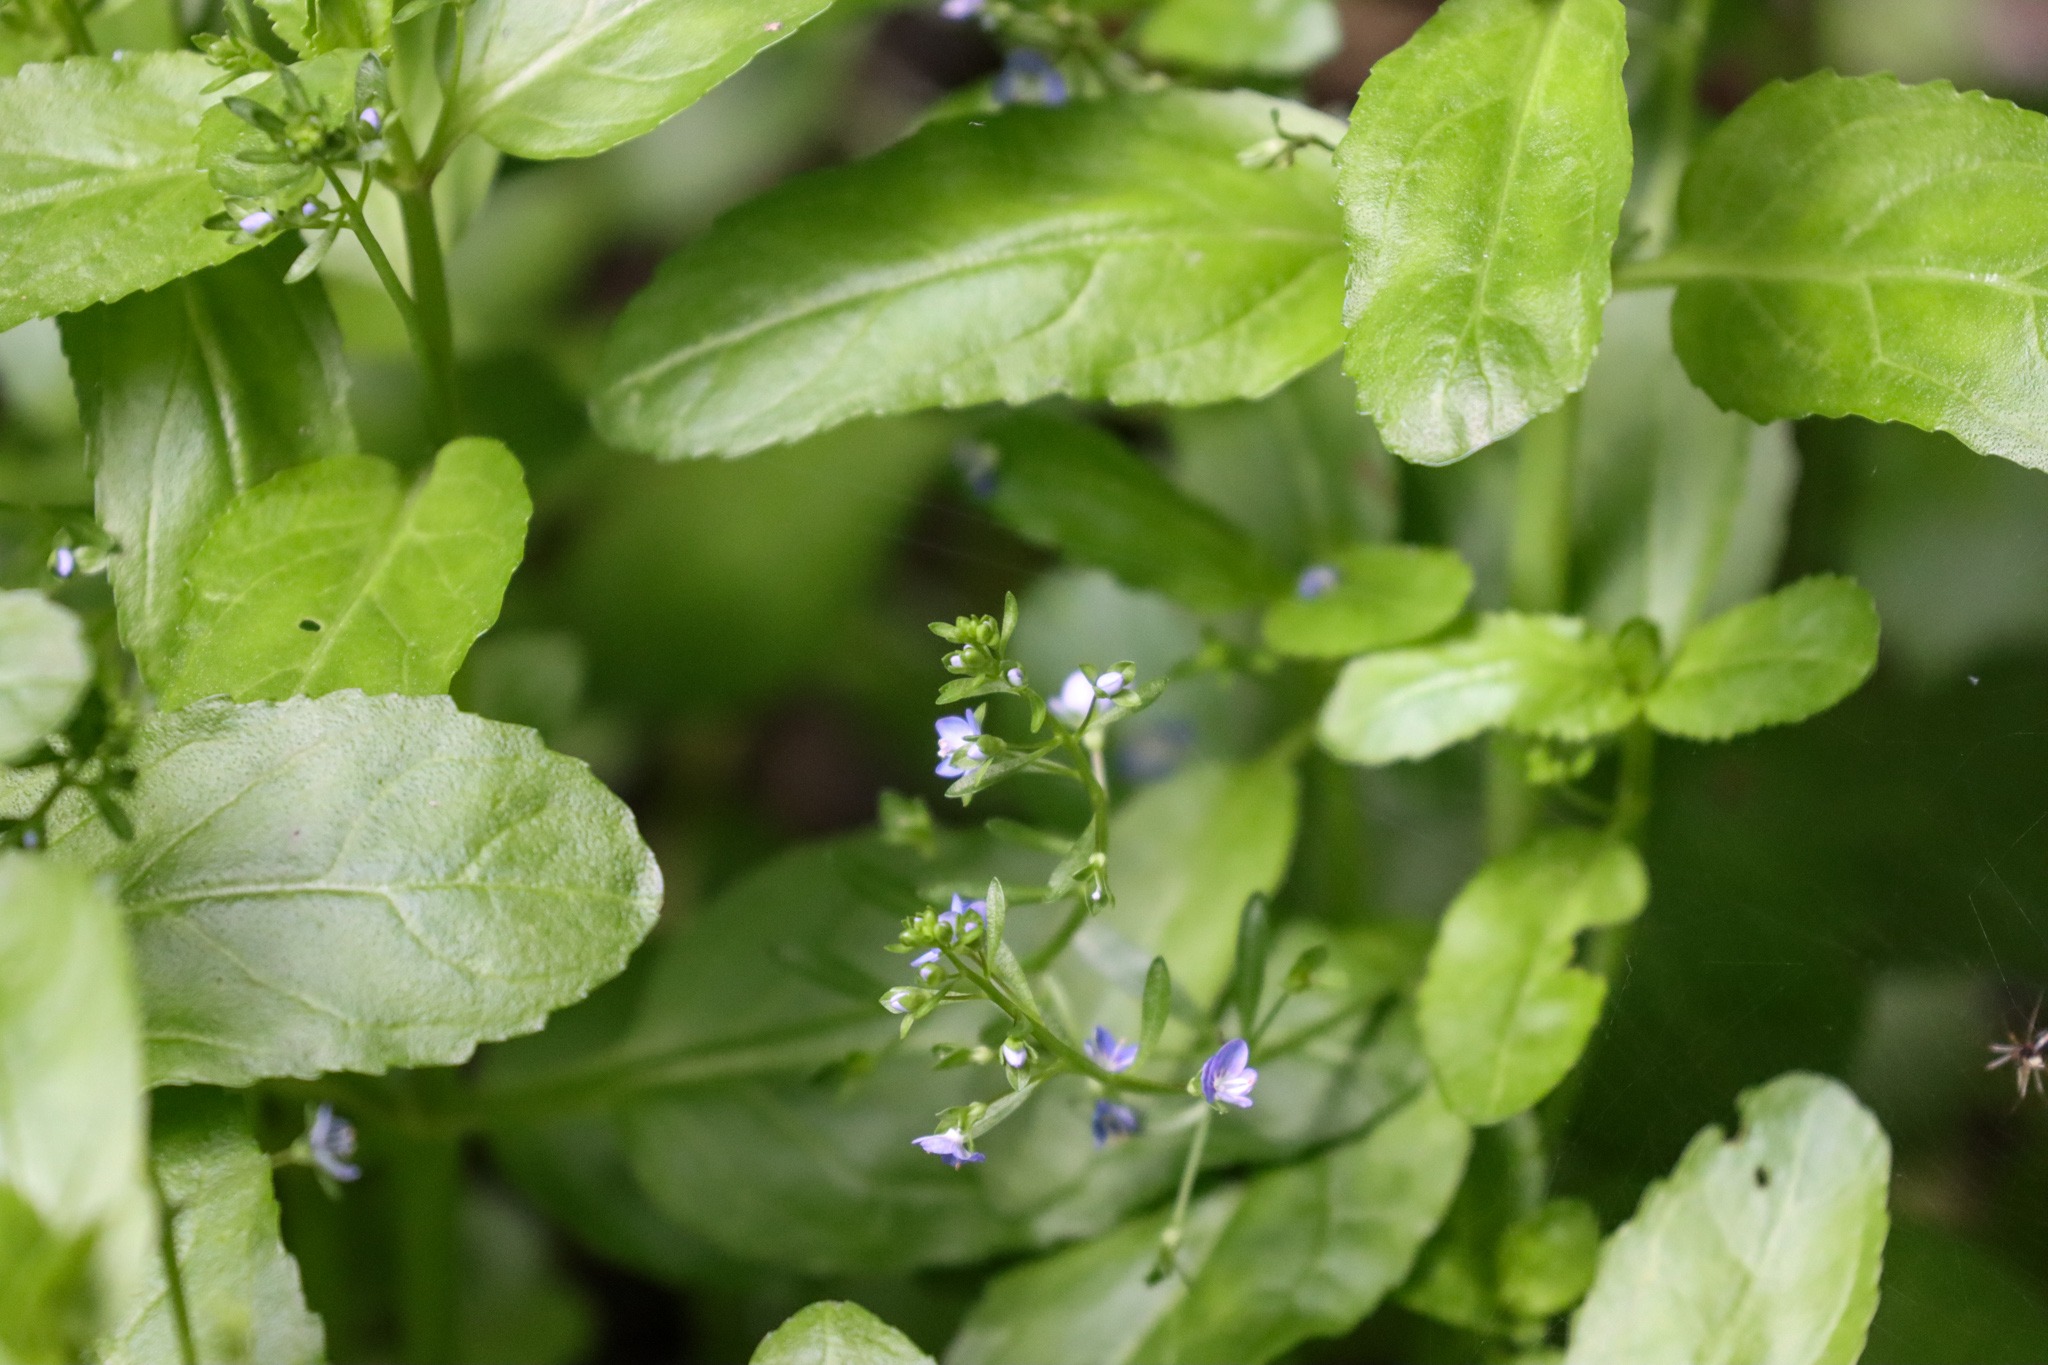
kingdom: Plantae
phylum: Tracheophyta
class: Magnoliopsida
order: Lamiales
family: Plantaginaceae
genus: Veronica
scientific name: Veronica beccabunga
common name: Tykbladet ærenpris
